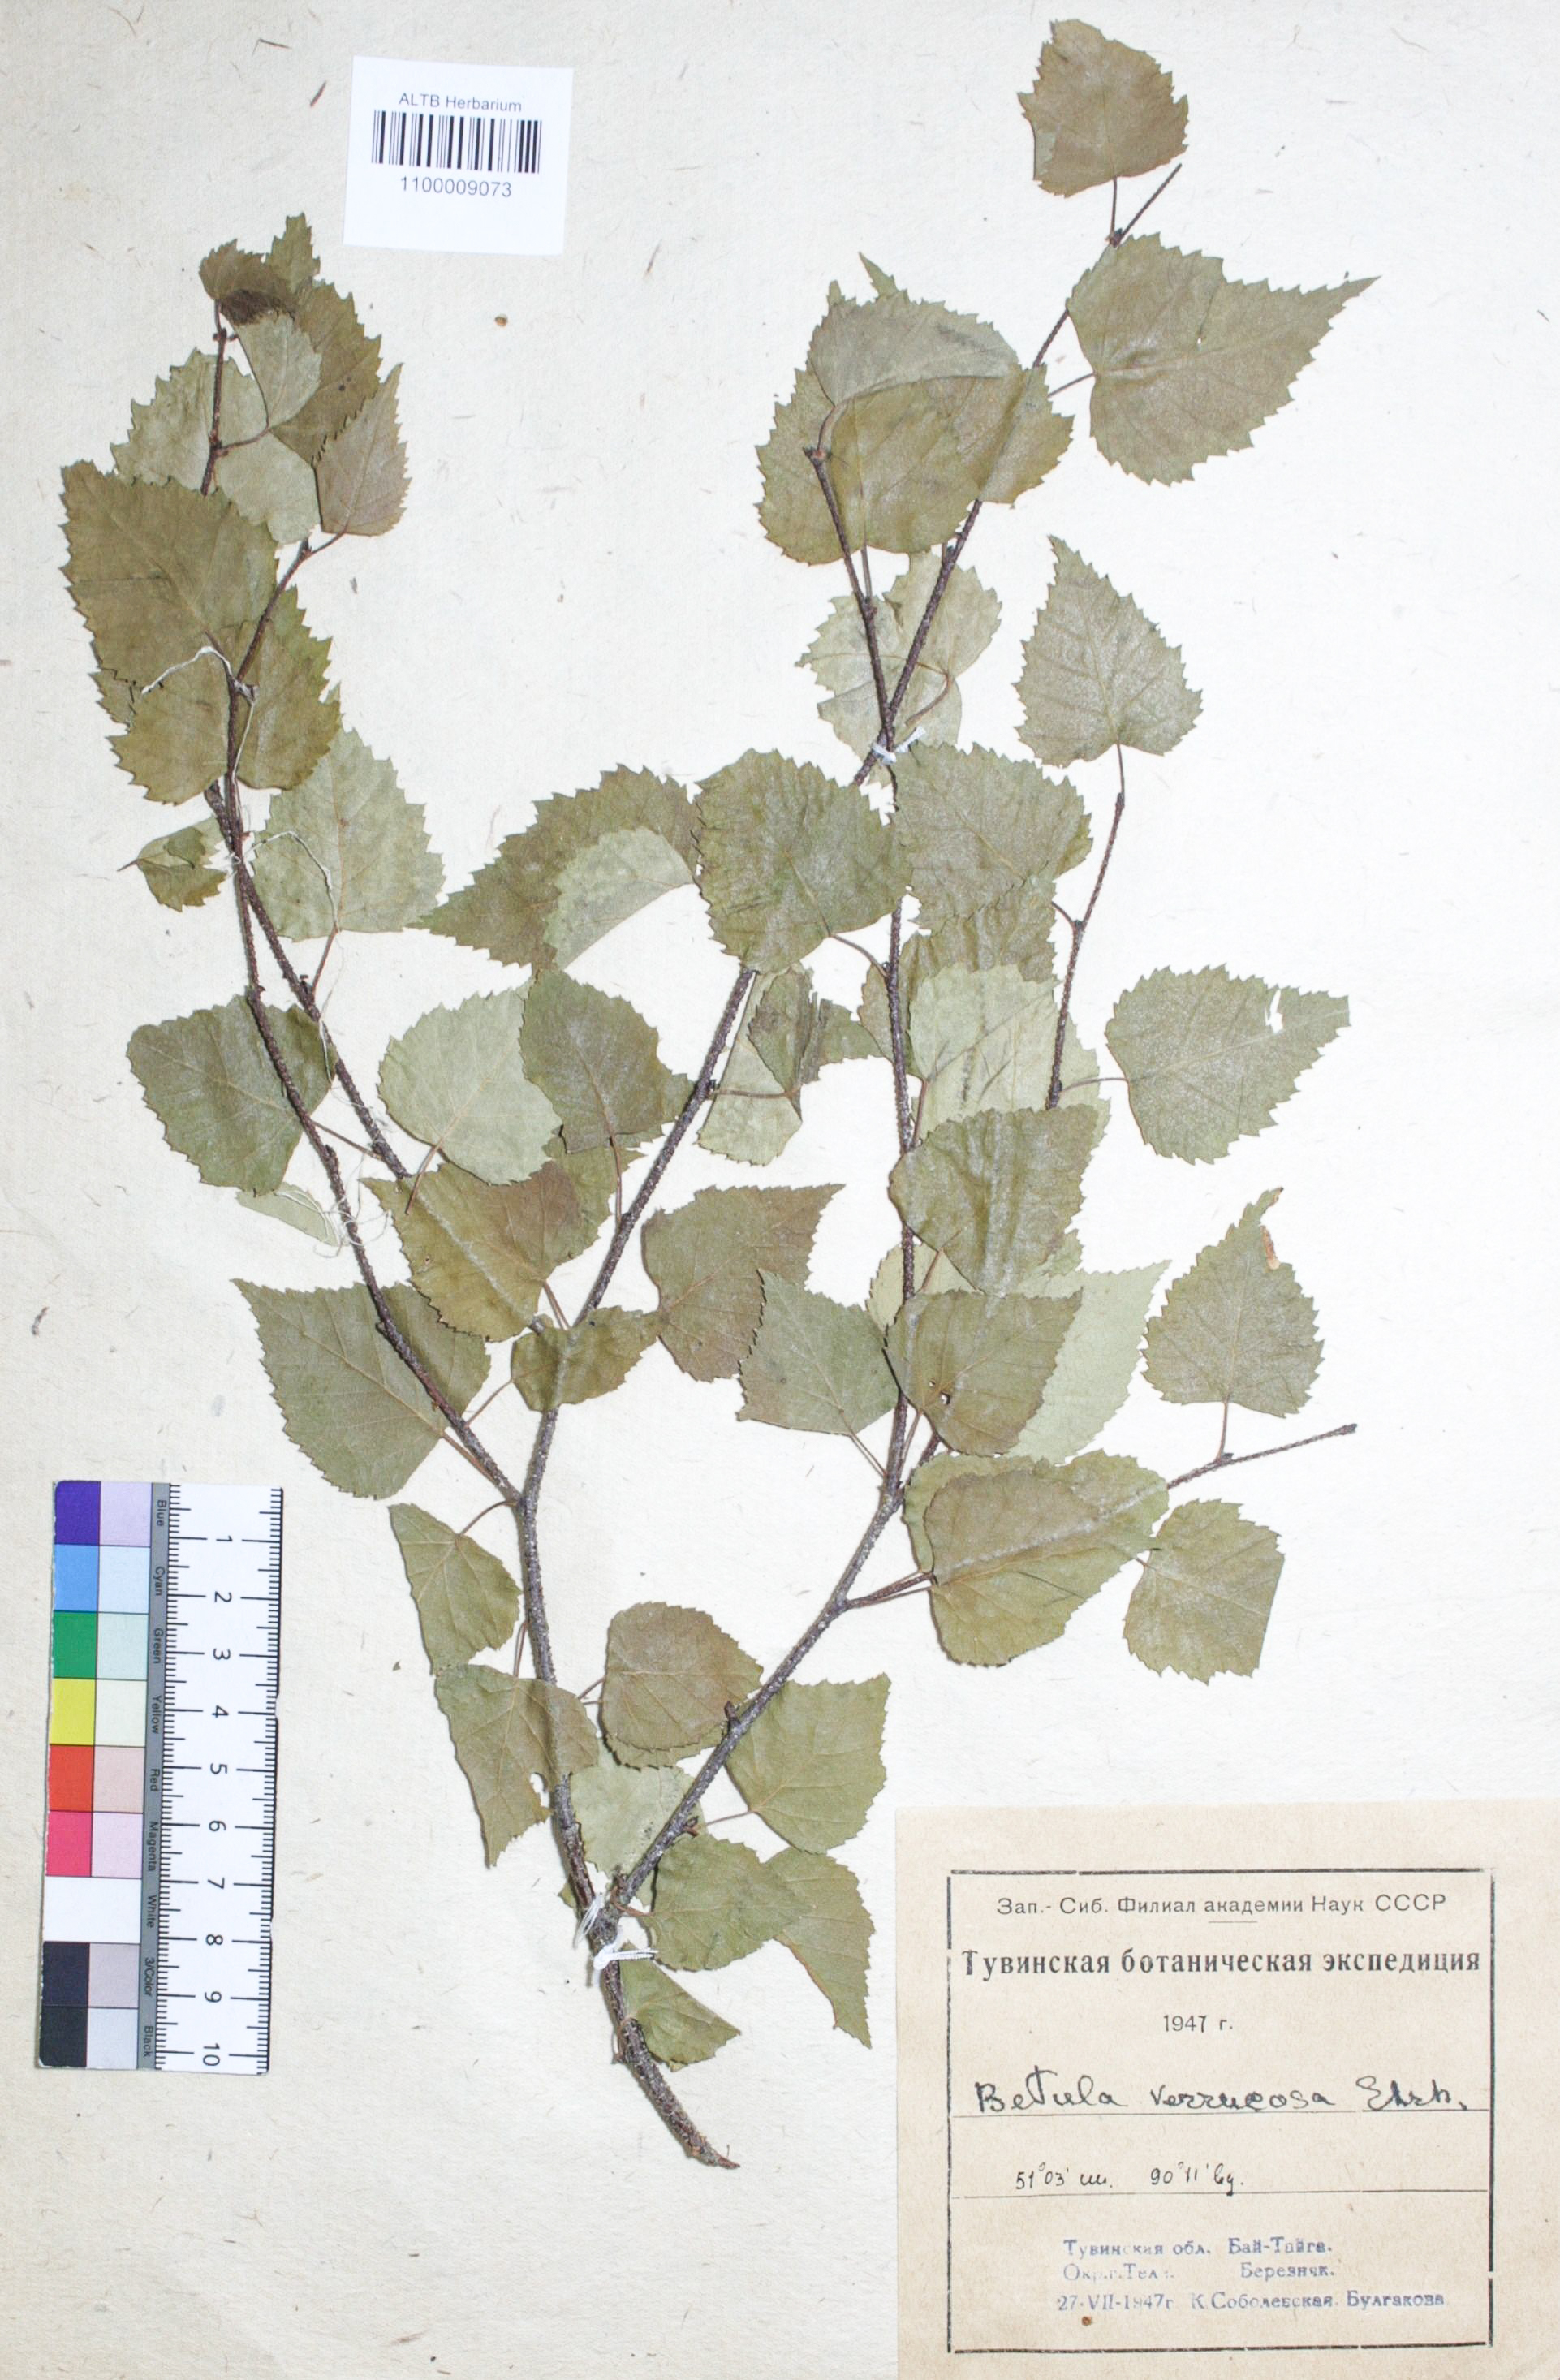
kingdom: Plantae
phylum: Tracheophyta
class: Magnoliopsida
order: Fagales
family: Betulaceae
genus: Betula
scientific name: Betula pendula
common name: Silver birch
